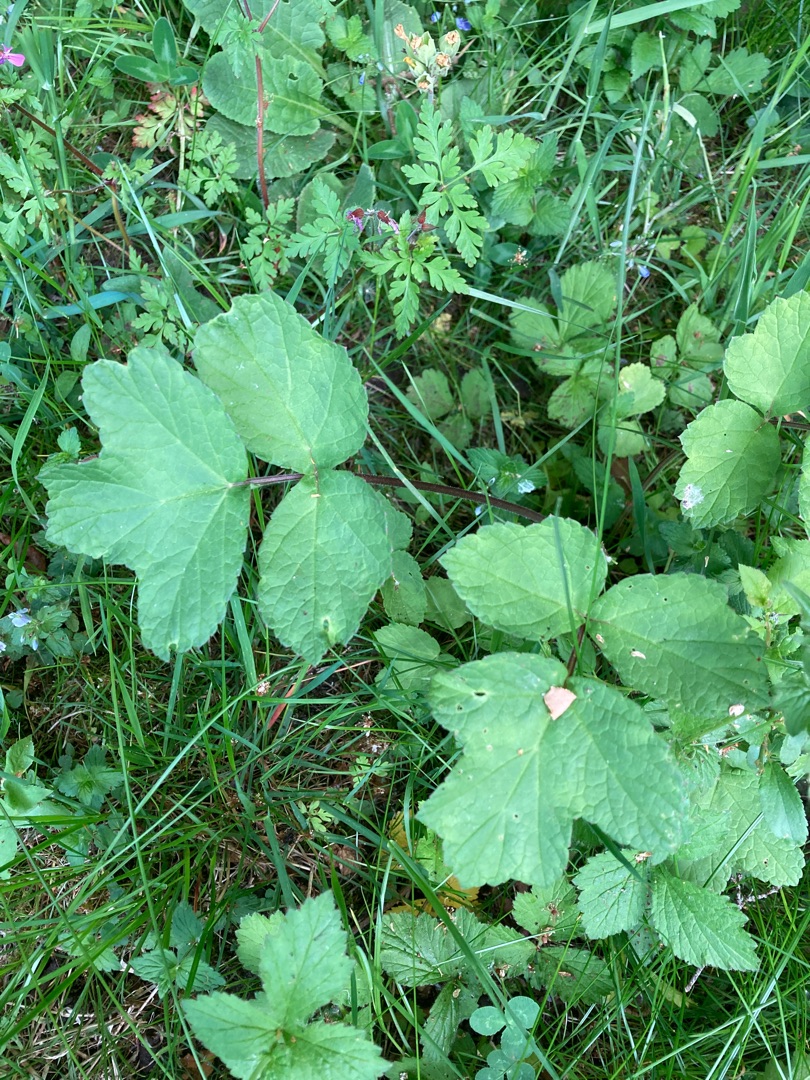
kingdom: Plantae
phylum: Tracheophyta
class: Magnoliopsida
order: Apiales
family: Apiaceae
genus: Heracleum
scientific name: Heracleum sphondylium
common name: Almindelig bjørneklo
